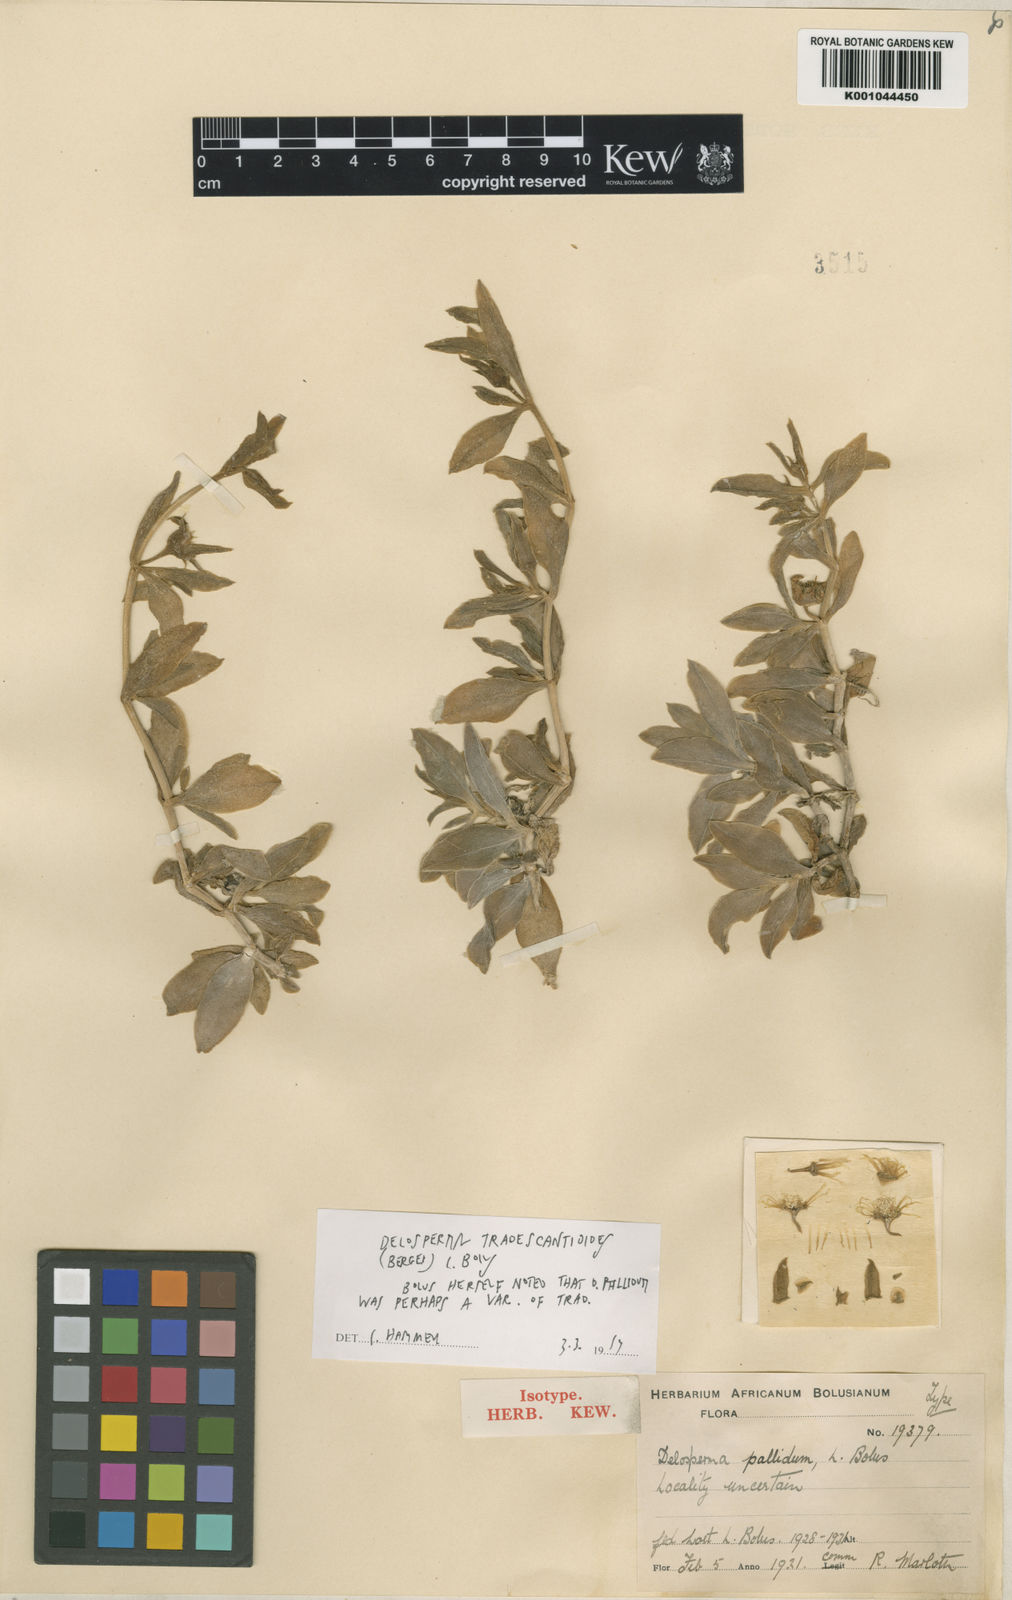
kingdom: Plantae
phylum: Tracheophyta
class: Magnoliopsida
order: Caryophyllales
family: Aizoaceae
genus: Delosperma
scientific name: Delosperma tradescantioides
